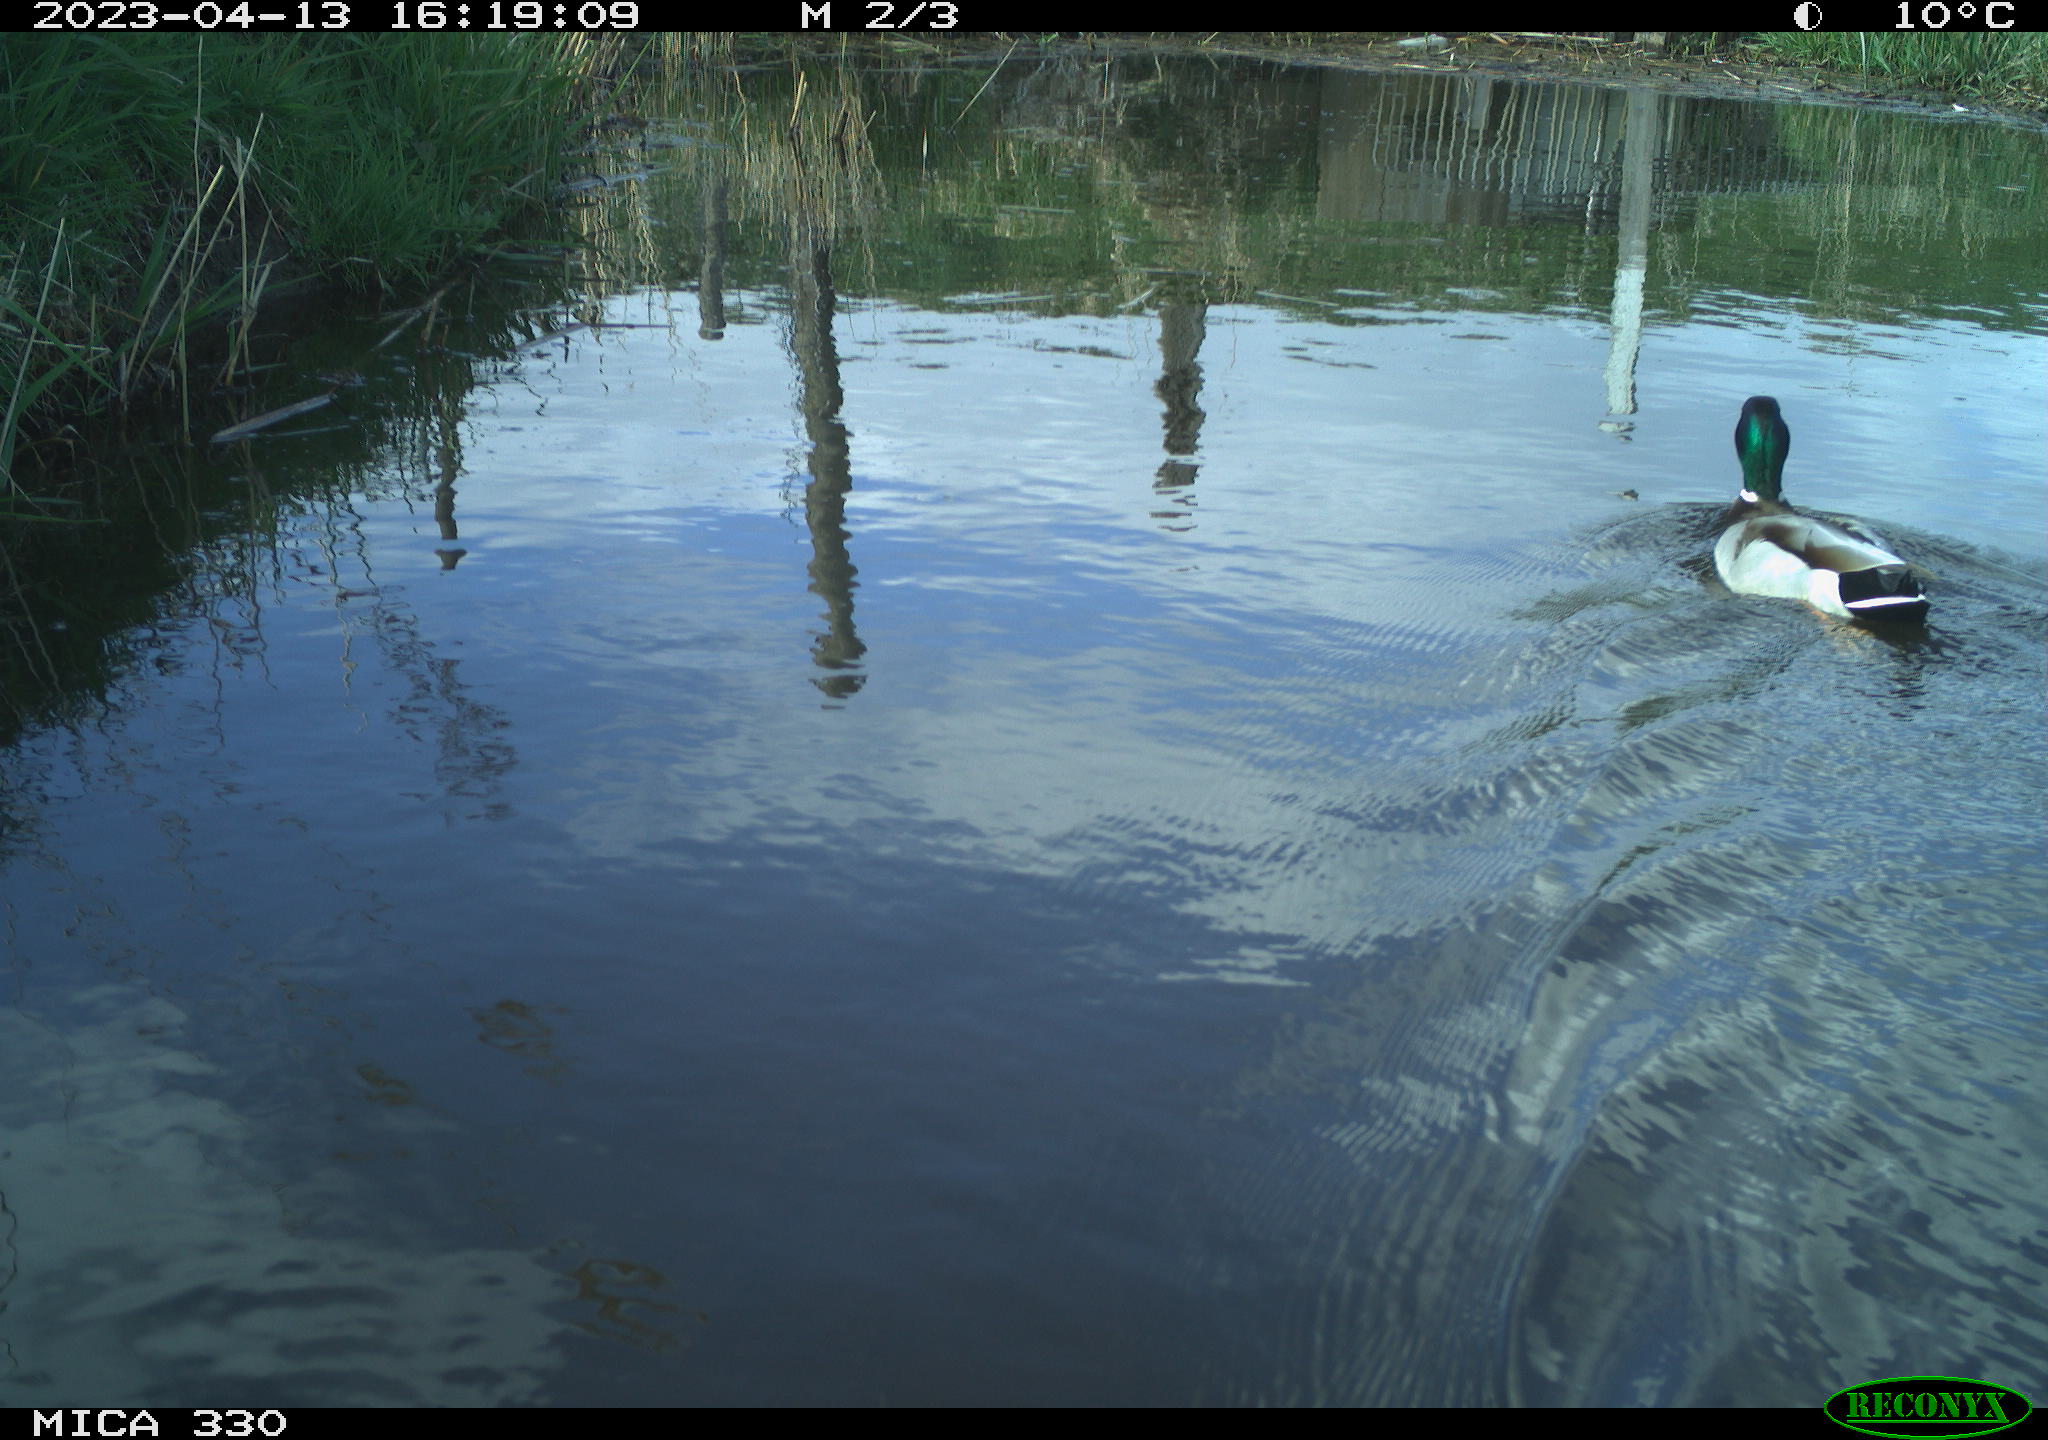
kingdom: Animalia
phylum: Chordata
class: Aves
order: Anseriformes
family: Anatidae
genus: Anas
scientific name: Anas platyrhynchos
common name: Mallard
